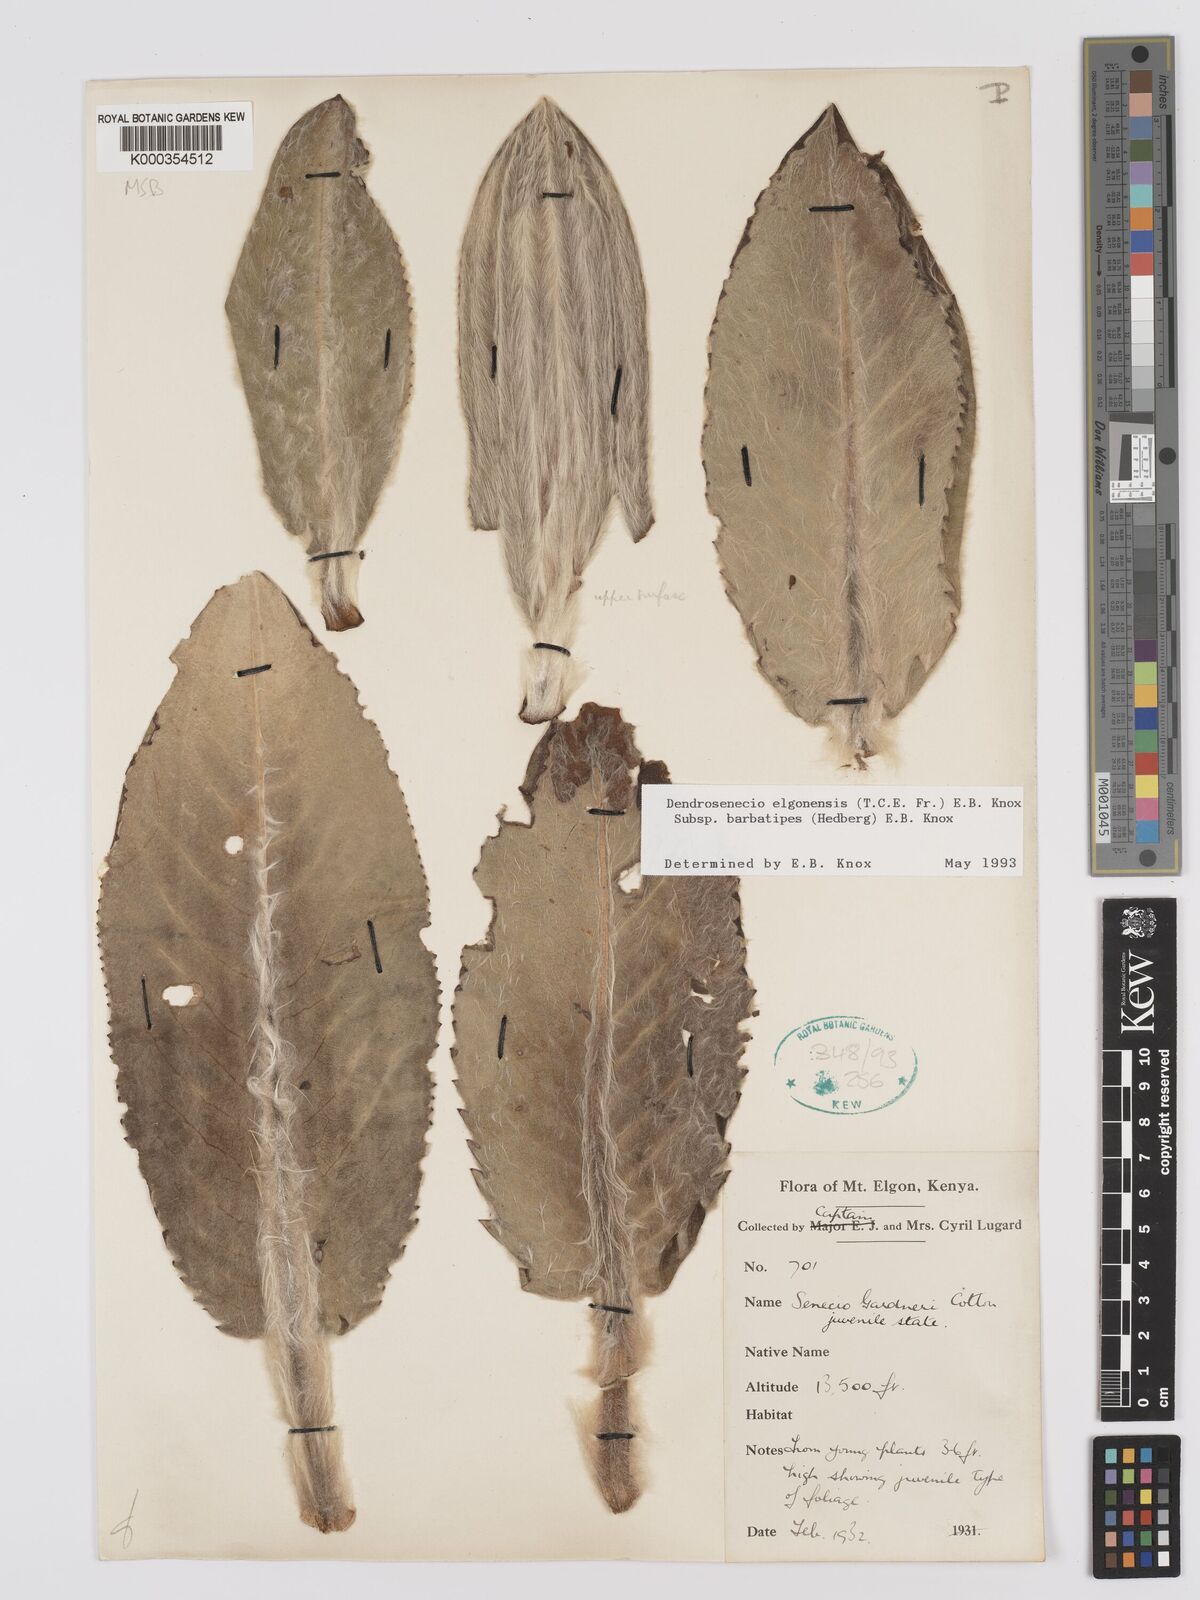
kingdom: Plantae
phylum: Tracheophyta
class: Magnoliopsida
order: Asterales
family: Asteraceae
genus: Dendrosenecio
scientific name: Dendrosenecio elgonensis
